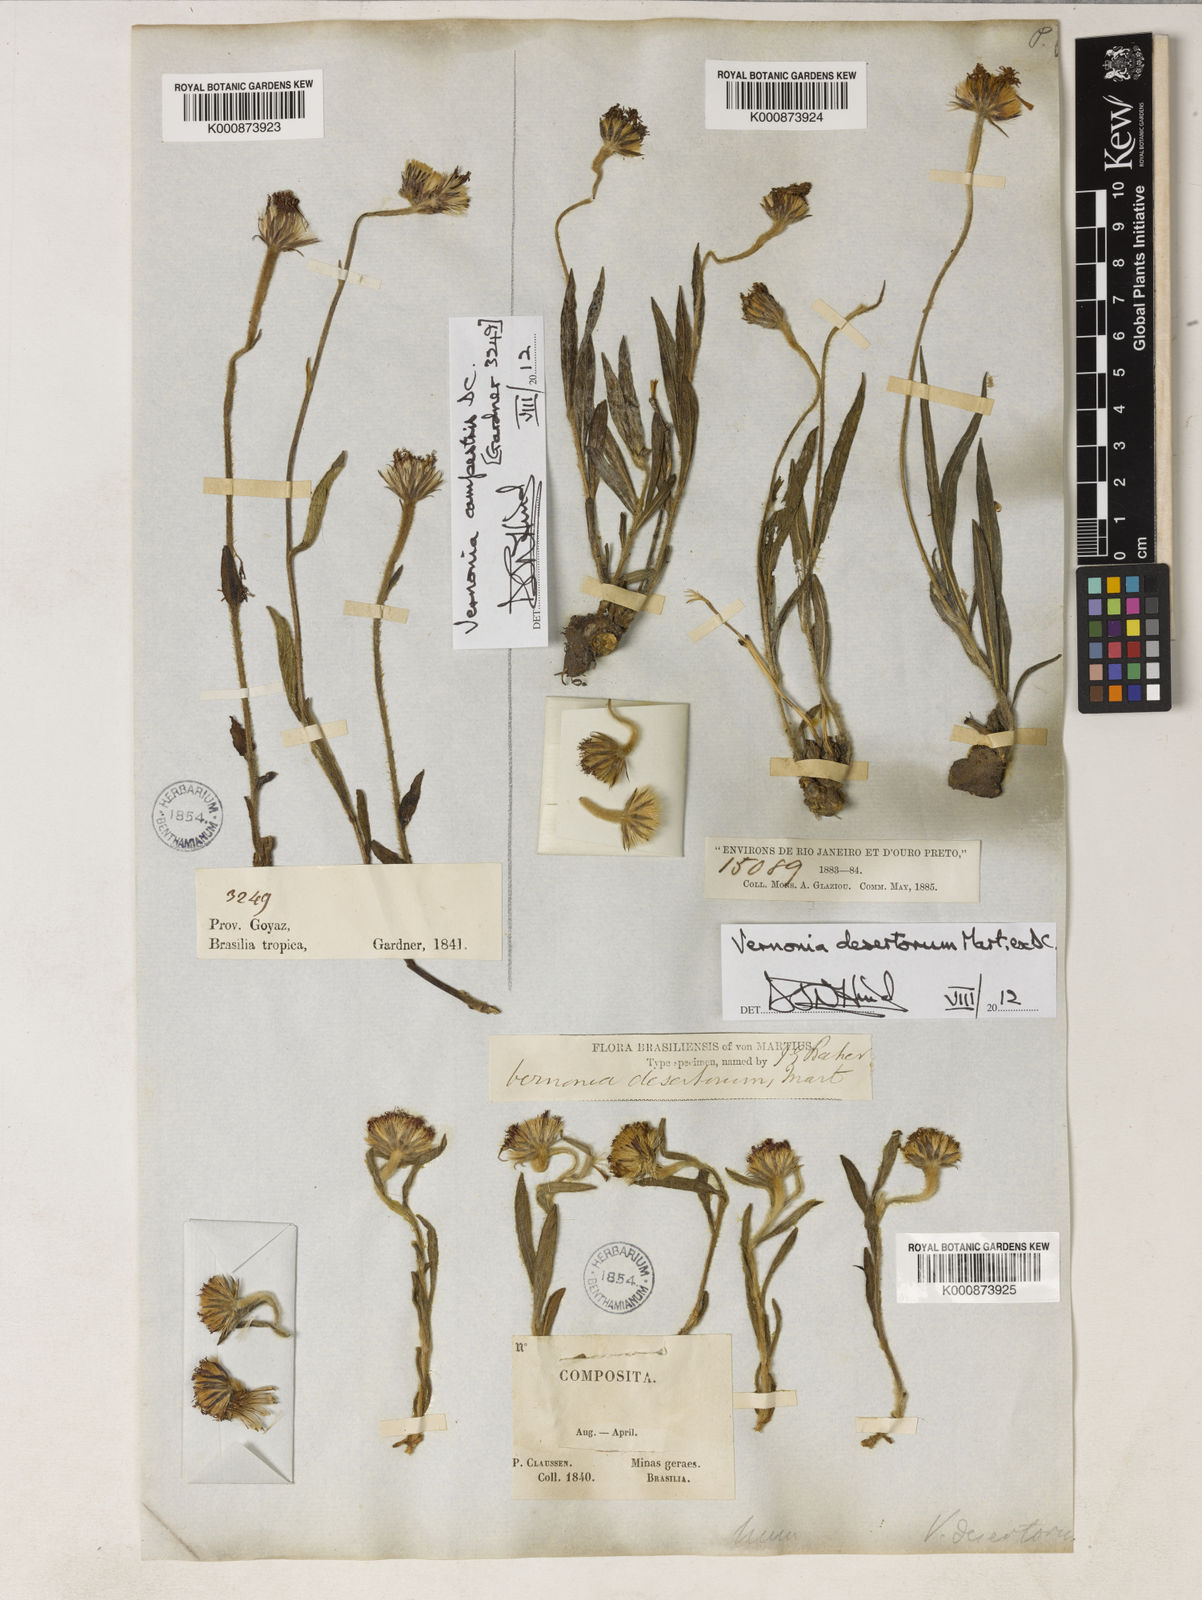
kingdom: Plantae
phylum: Tracheophyta
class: Magnoliopsida
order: Asterales
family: Asteraceae
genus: Chrysolaena
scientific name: Chrysolaena desertorum
